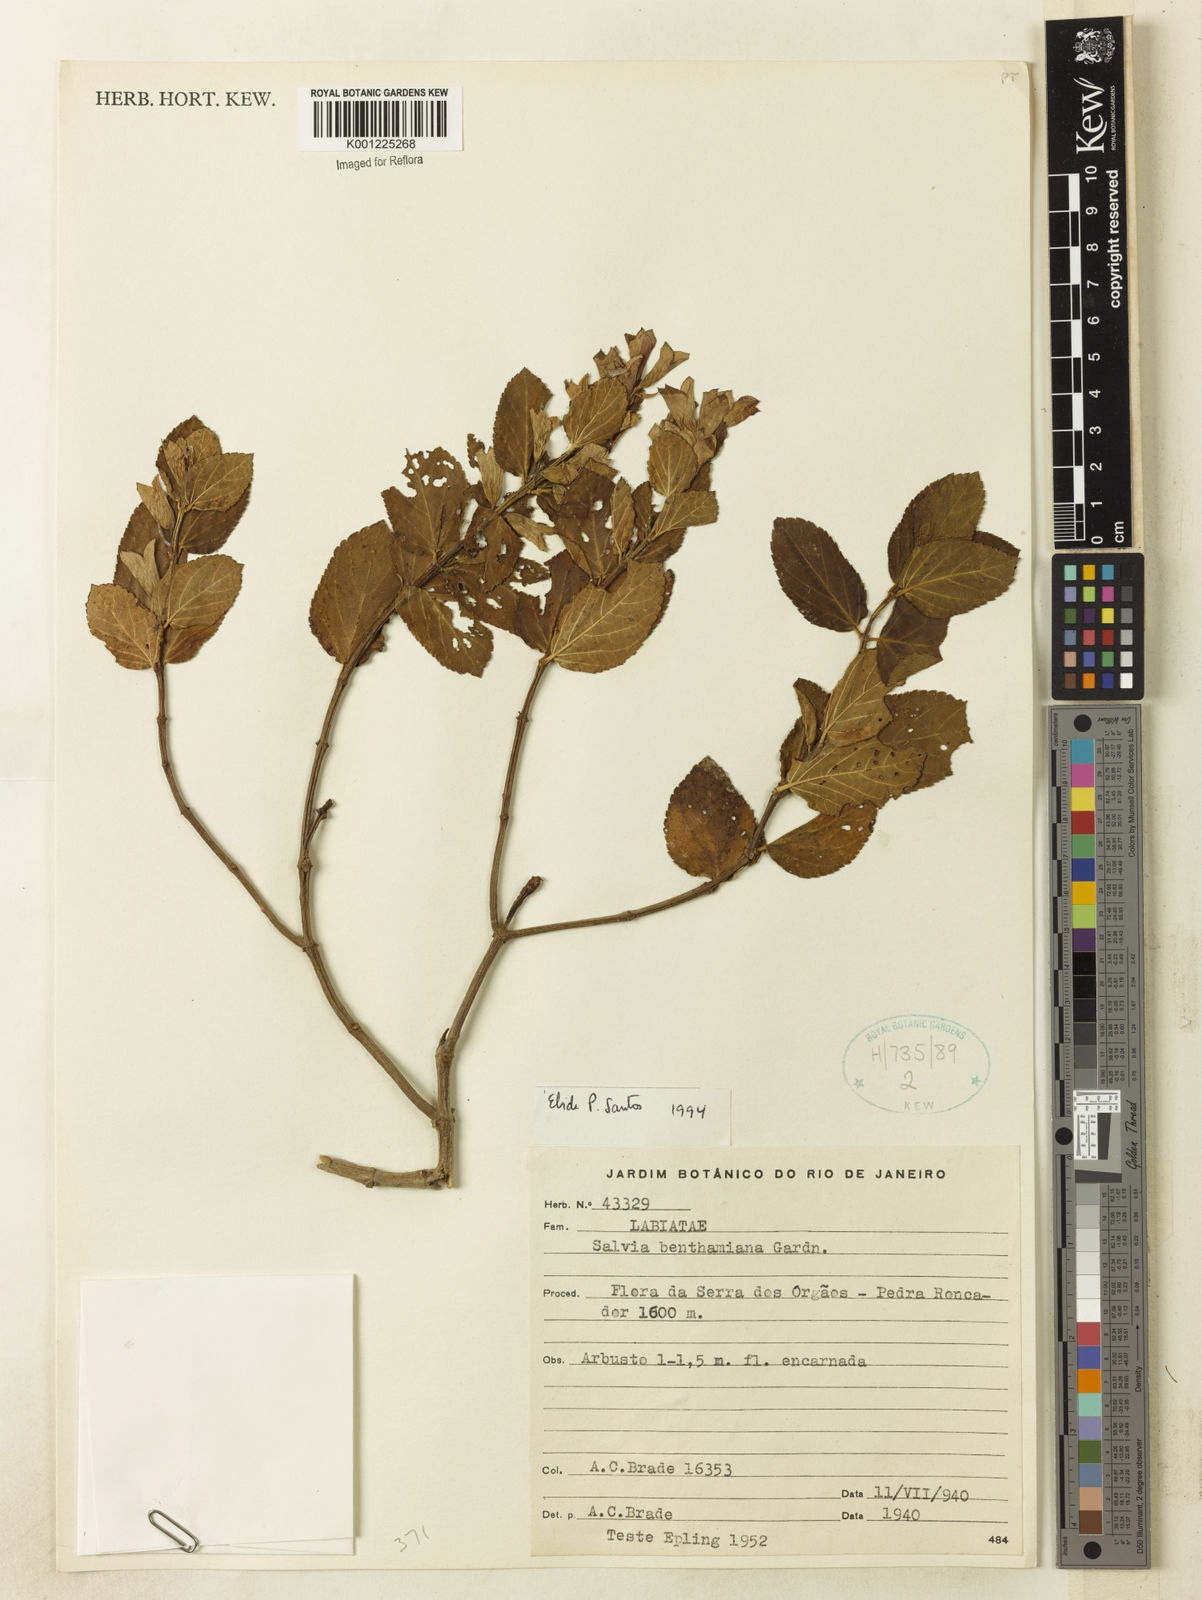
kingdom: Plantae
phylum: Tracheophyta
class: Magnoliopsida
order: Lamiales
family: Lamiaceae
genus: Salvia
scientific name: Salvia
